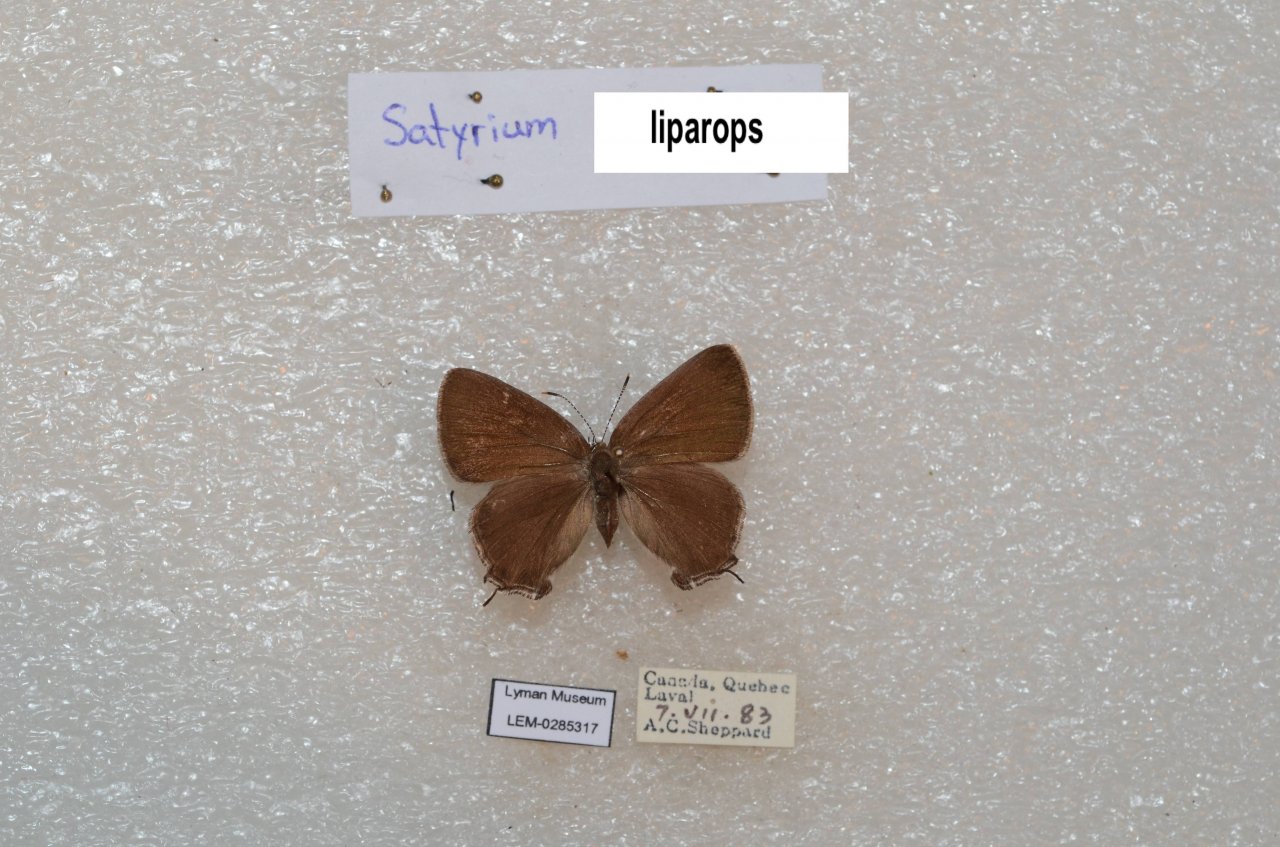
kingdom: Animalia
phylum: Arthropoda
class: Insecta
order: Lepidoptera
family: Lycaenidae
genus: Satyrium
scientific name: Satyrium liparops
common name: Striped Hairstreak
